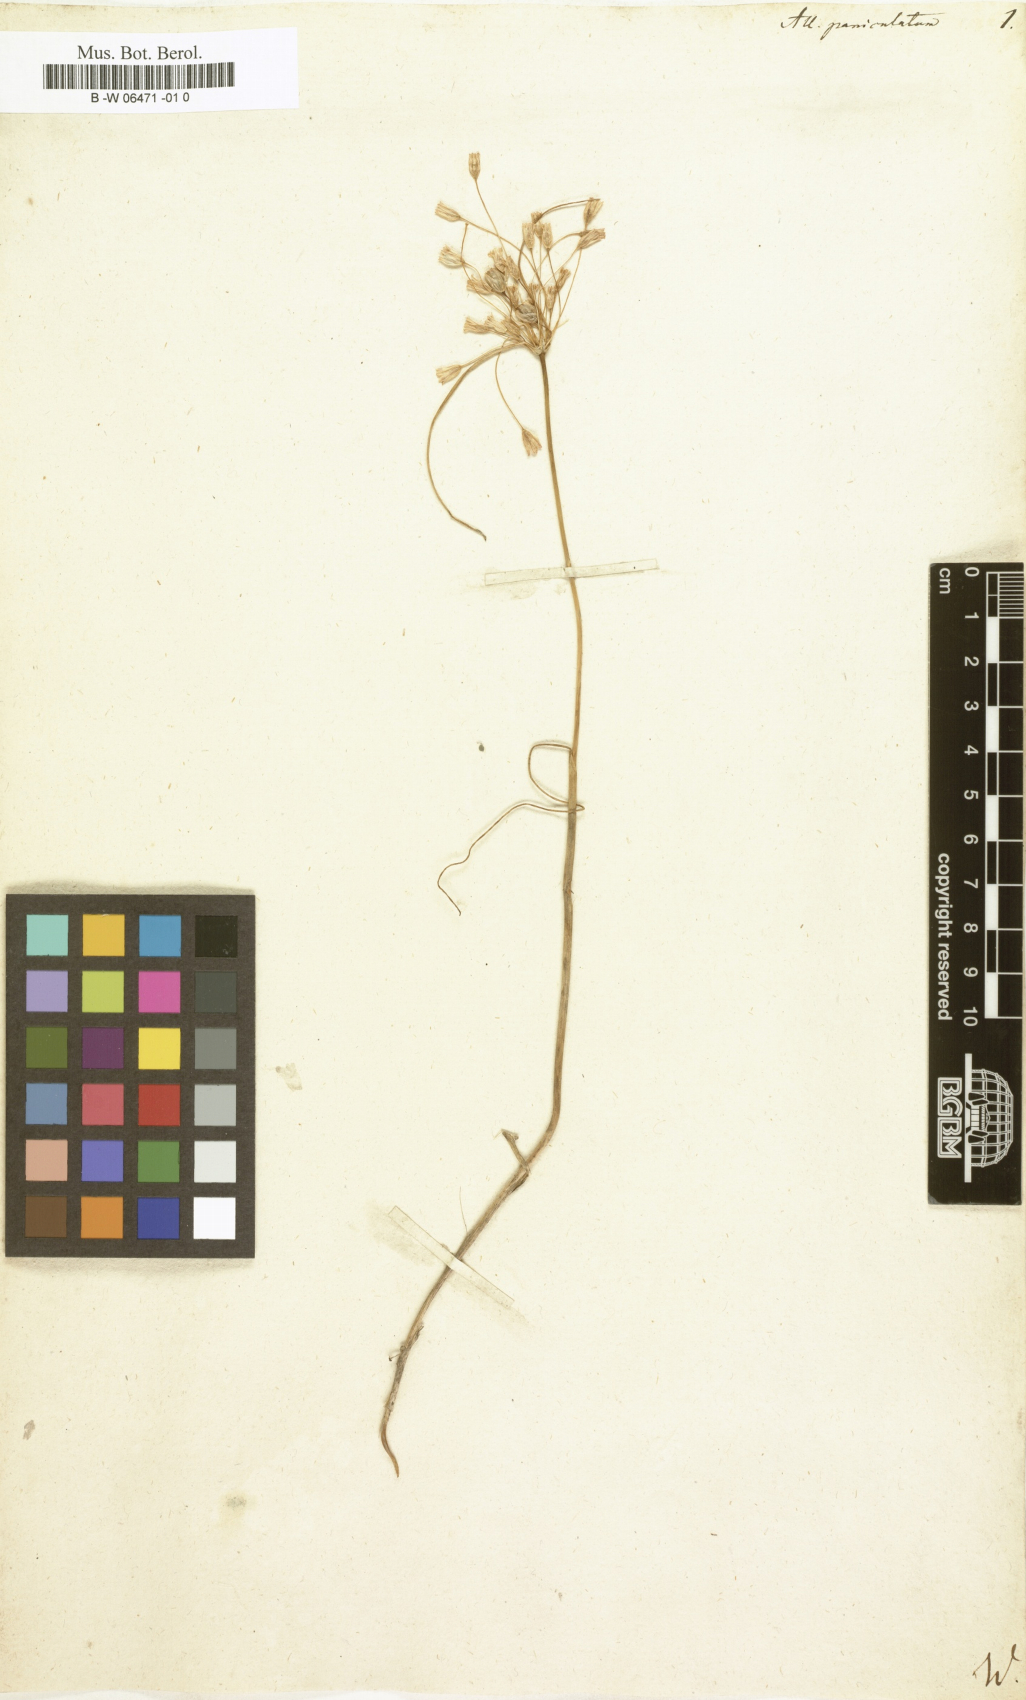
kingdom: Plantae
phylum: Tracheophyta
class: Liliopsida
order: Asparagales
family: Amaryllidaceae
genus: Allium
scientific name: Allium paniculatum
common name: Pale garlic
